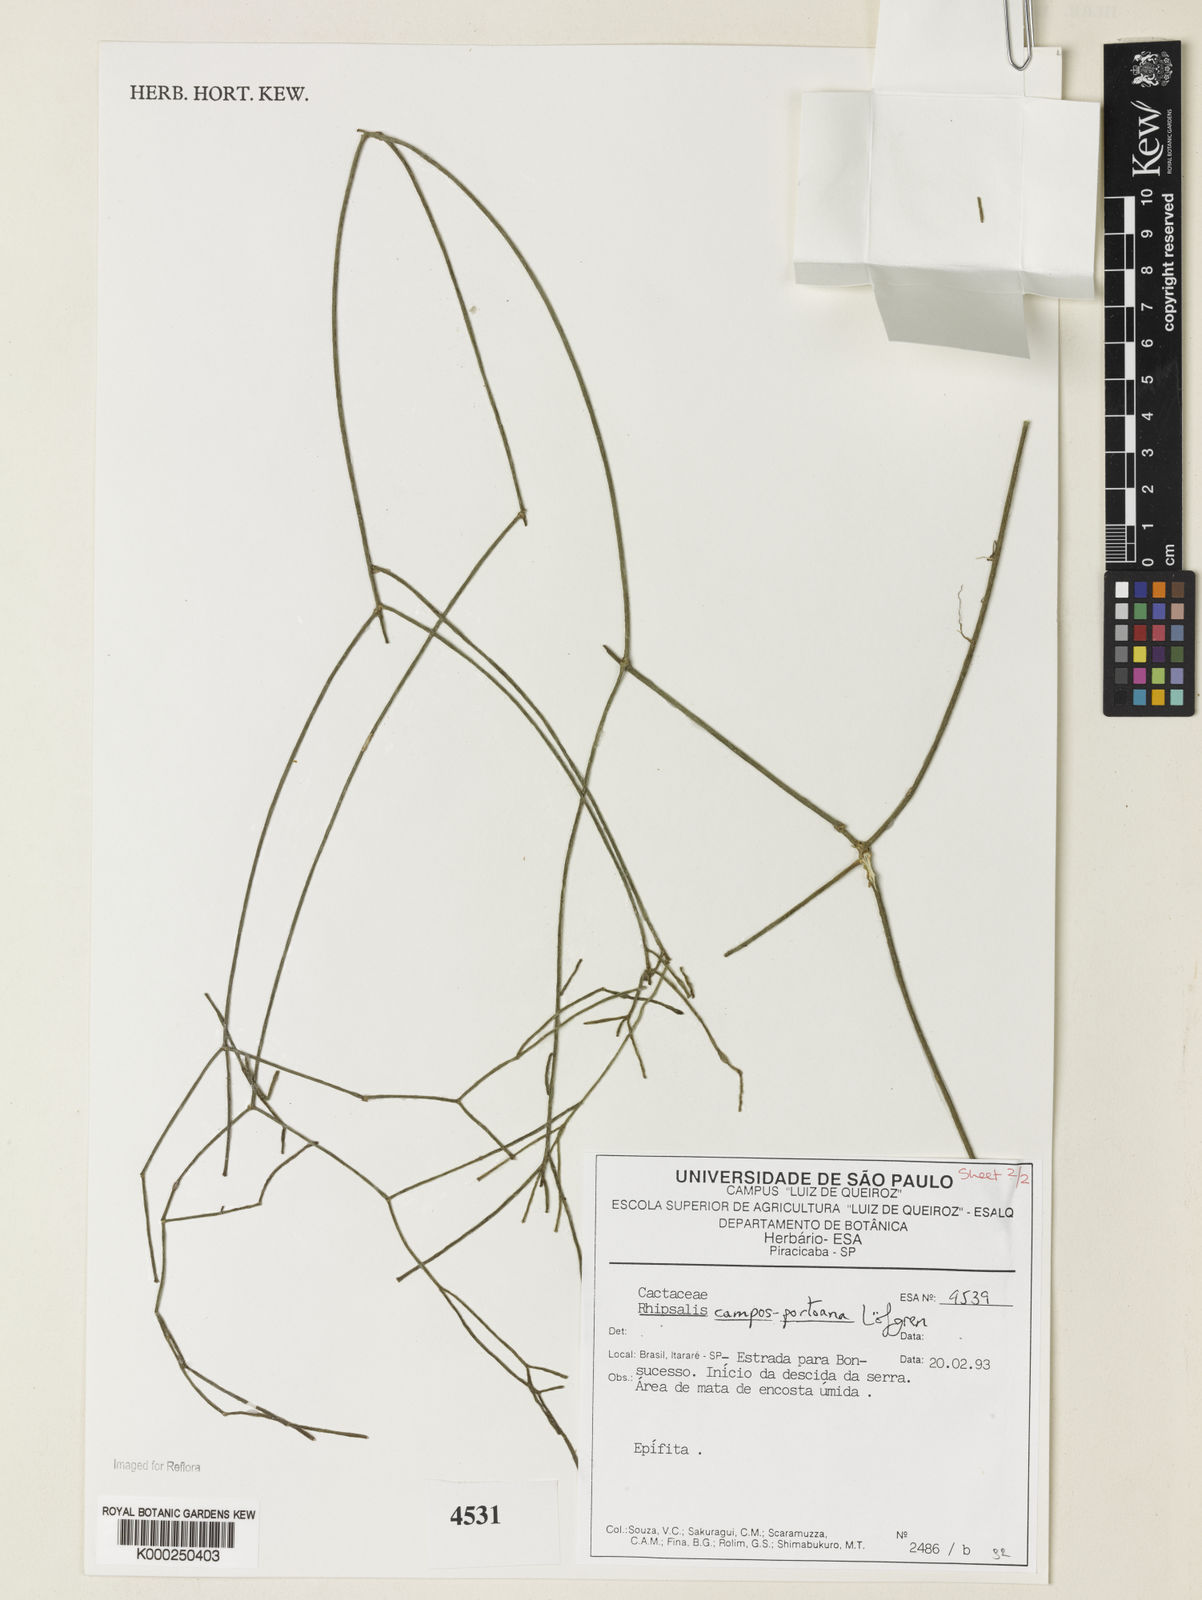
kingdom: Plantae
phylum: Tracheophyta
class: Magnoliopsida
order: Caryophyllales
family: Cactaceae
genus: Rhipsalis
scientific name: Rhipsalis
